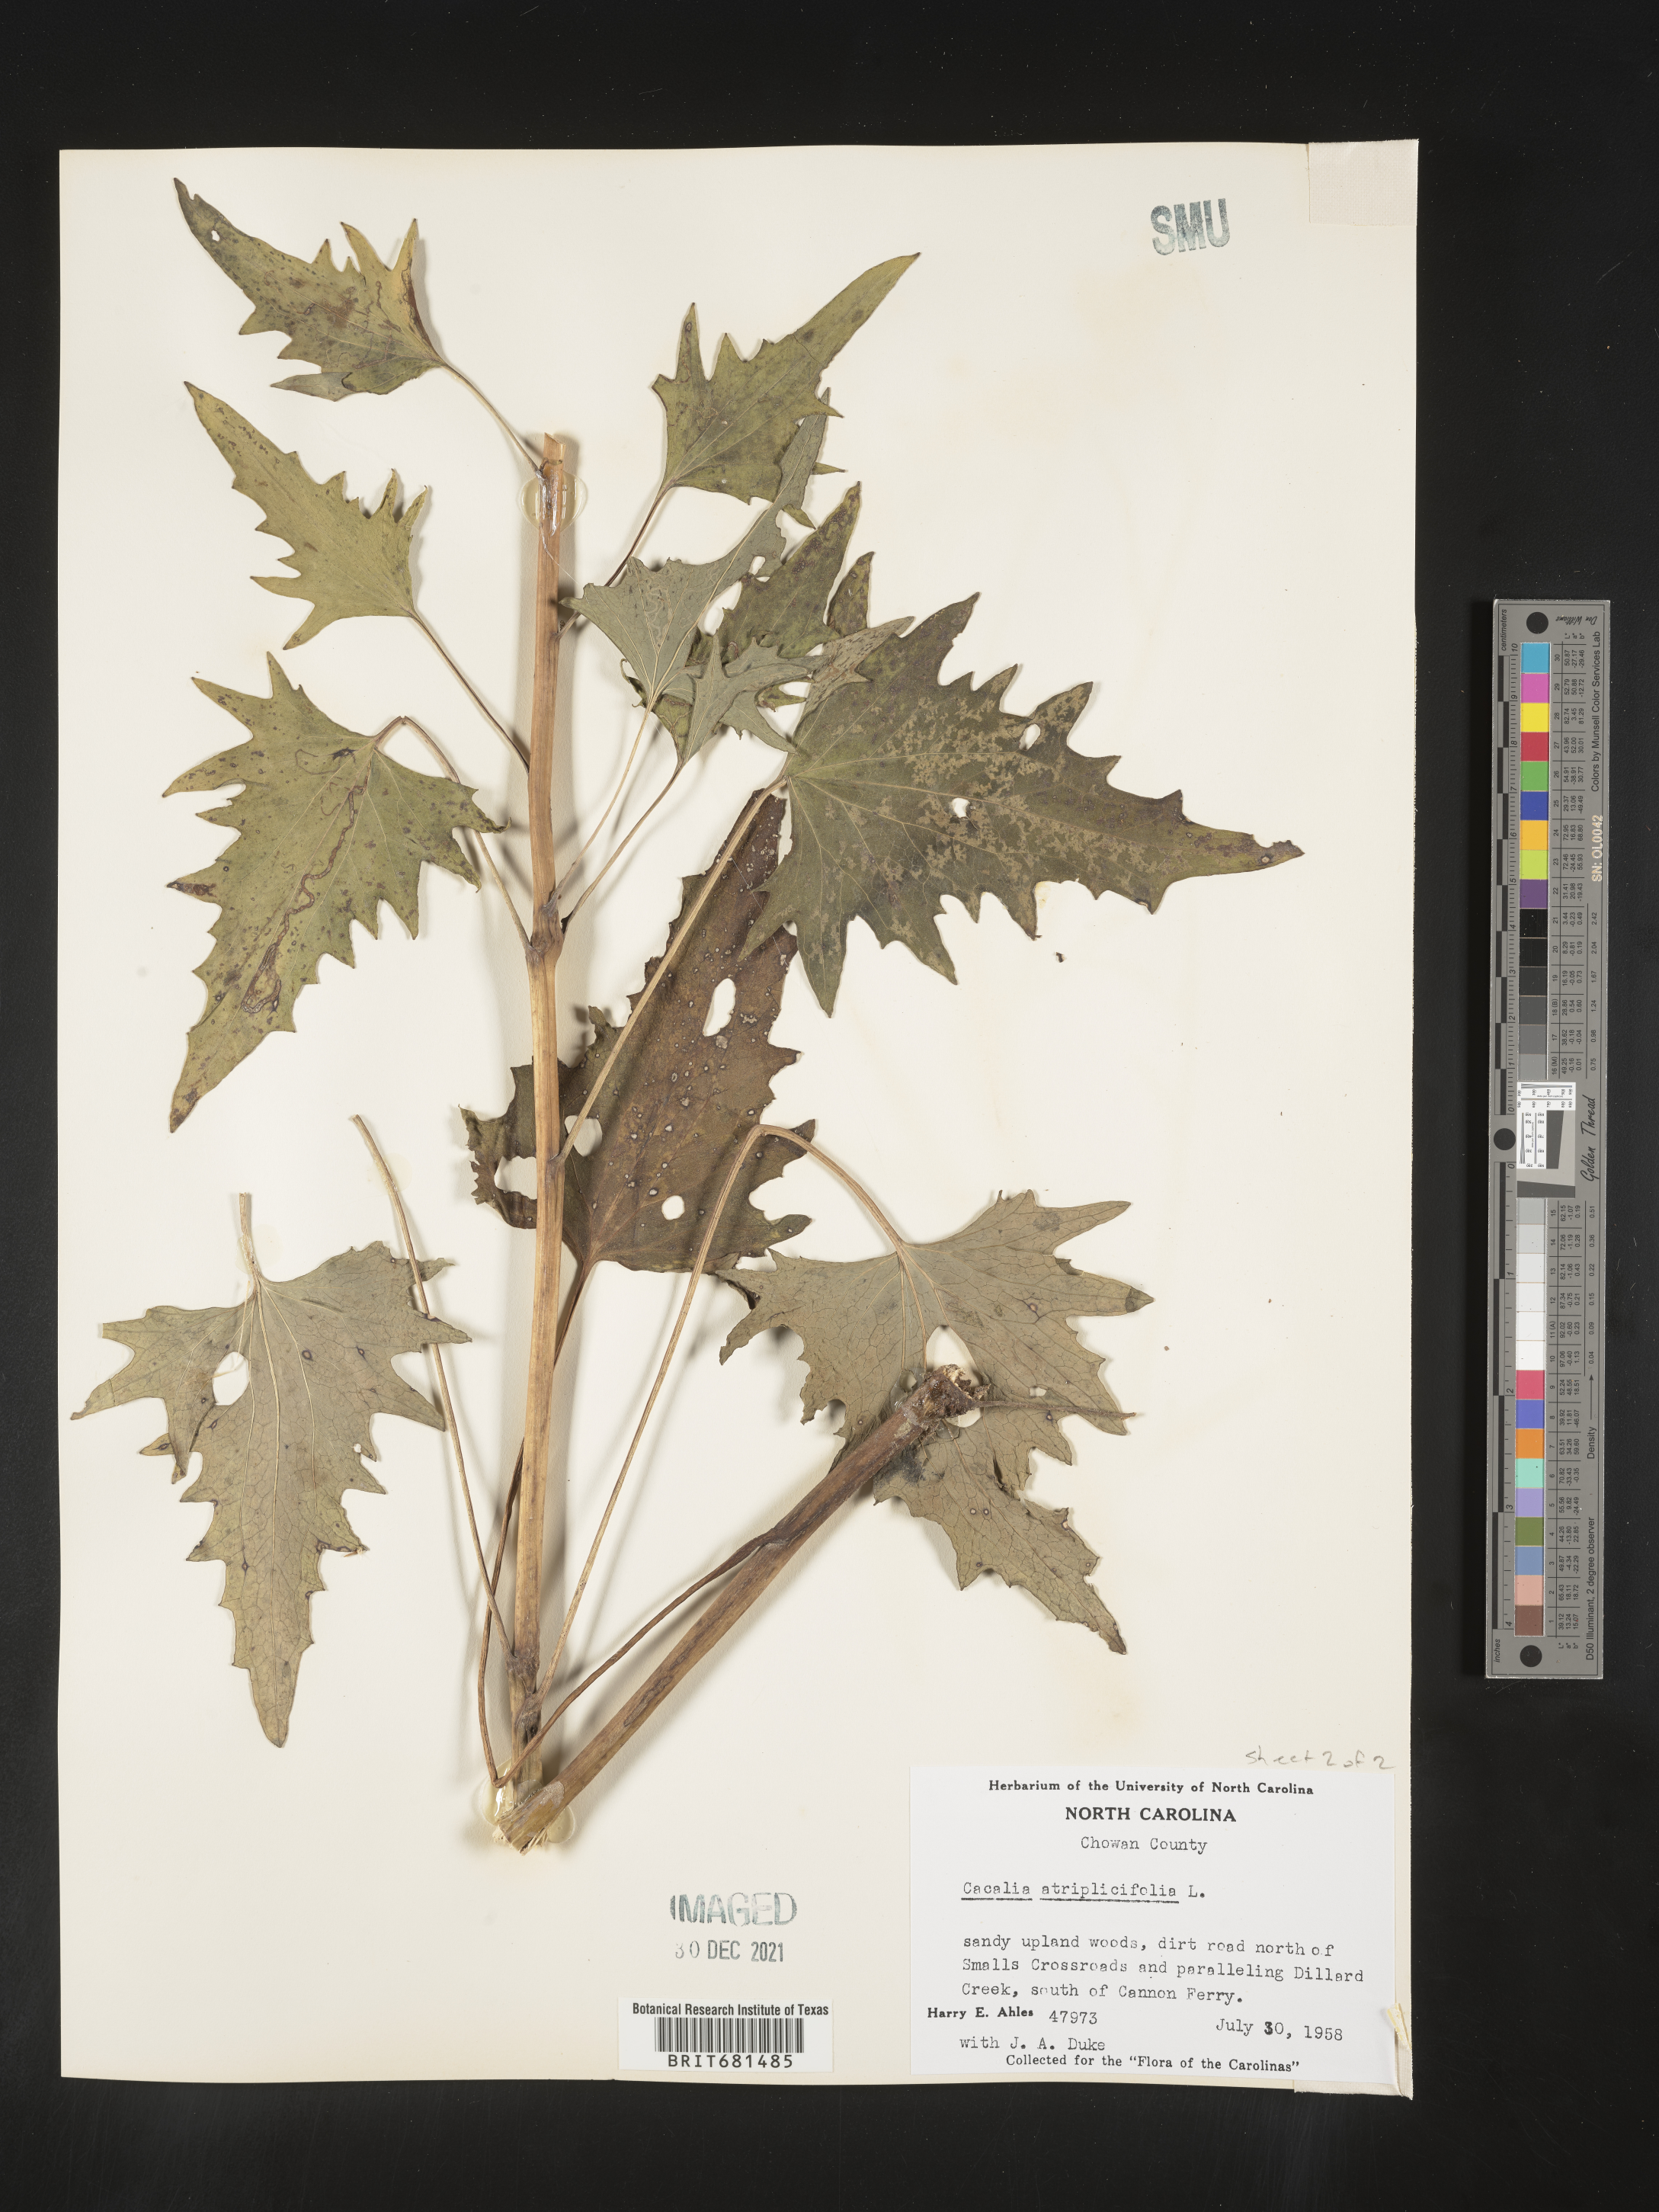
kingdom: Plantae
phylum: Tracheophyta
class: Magnoliopsida
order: Asterales
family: Asteraceae
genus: Arnoglossum
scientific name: Arnoglossum atriplicifolium
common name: Pale indian-plantain
